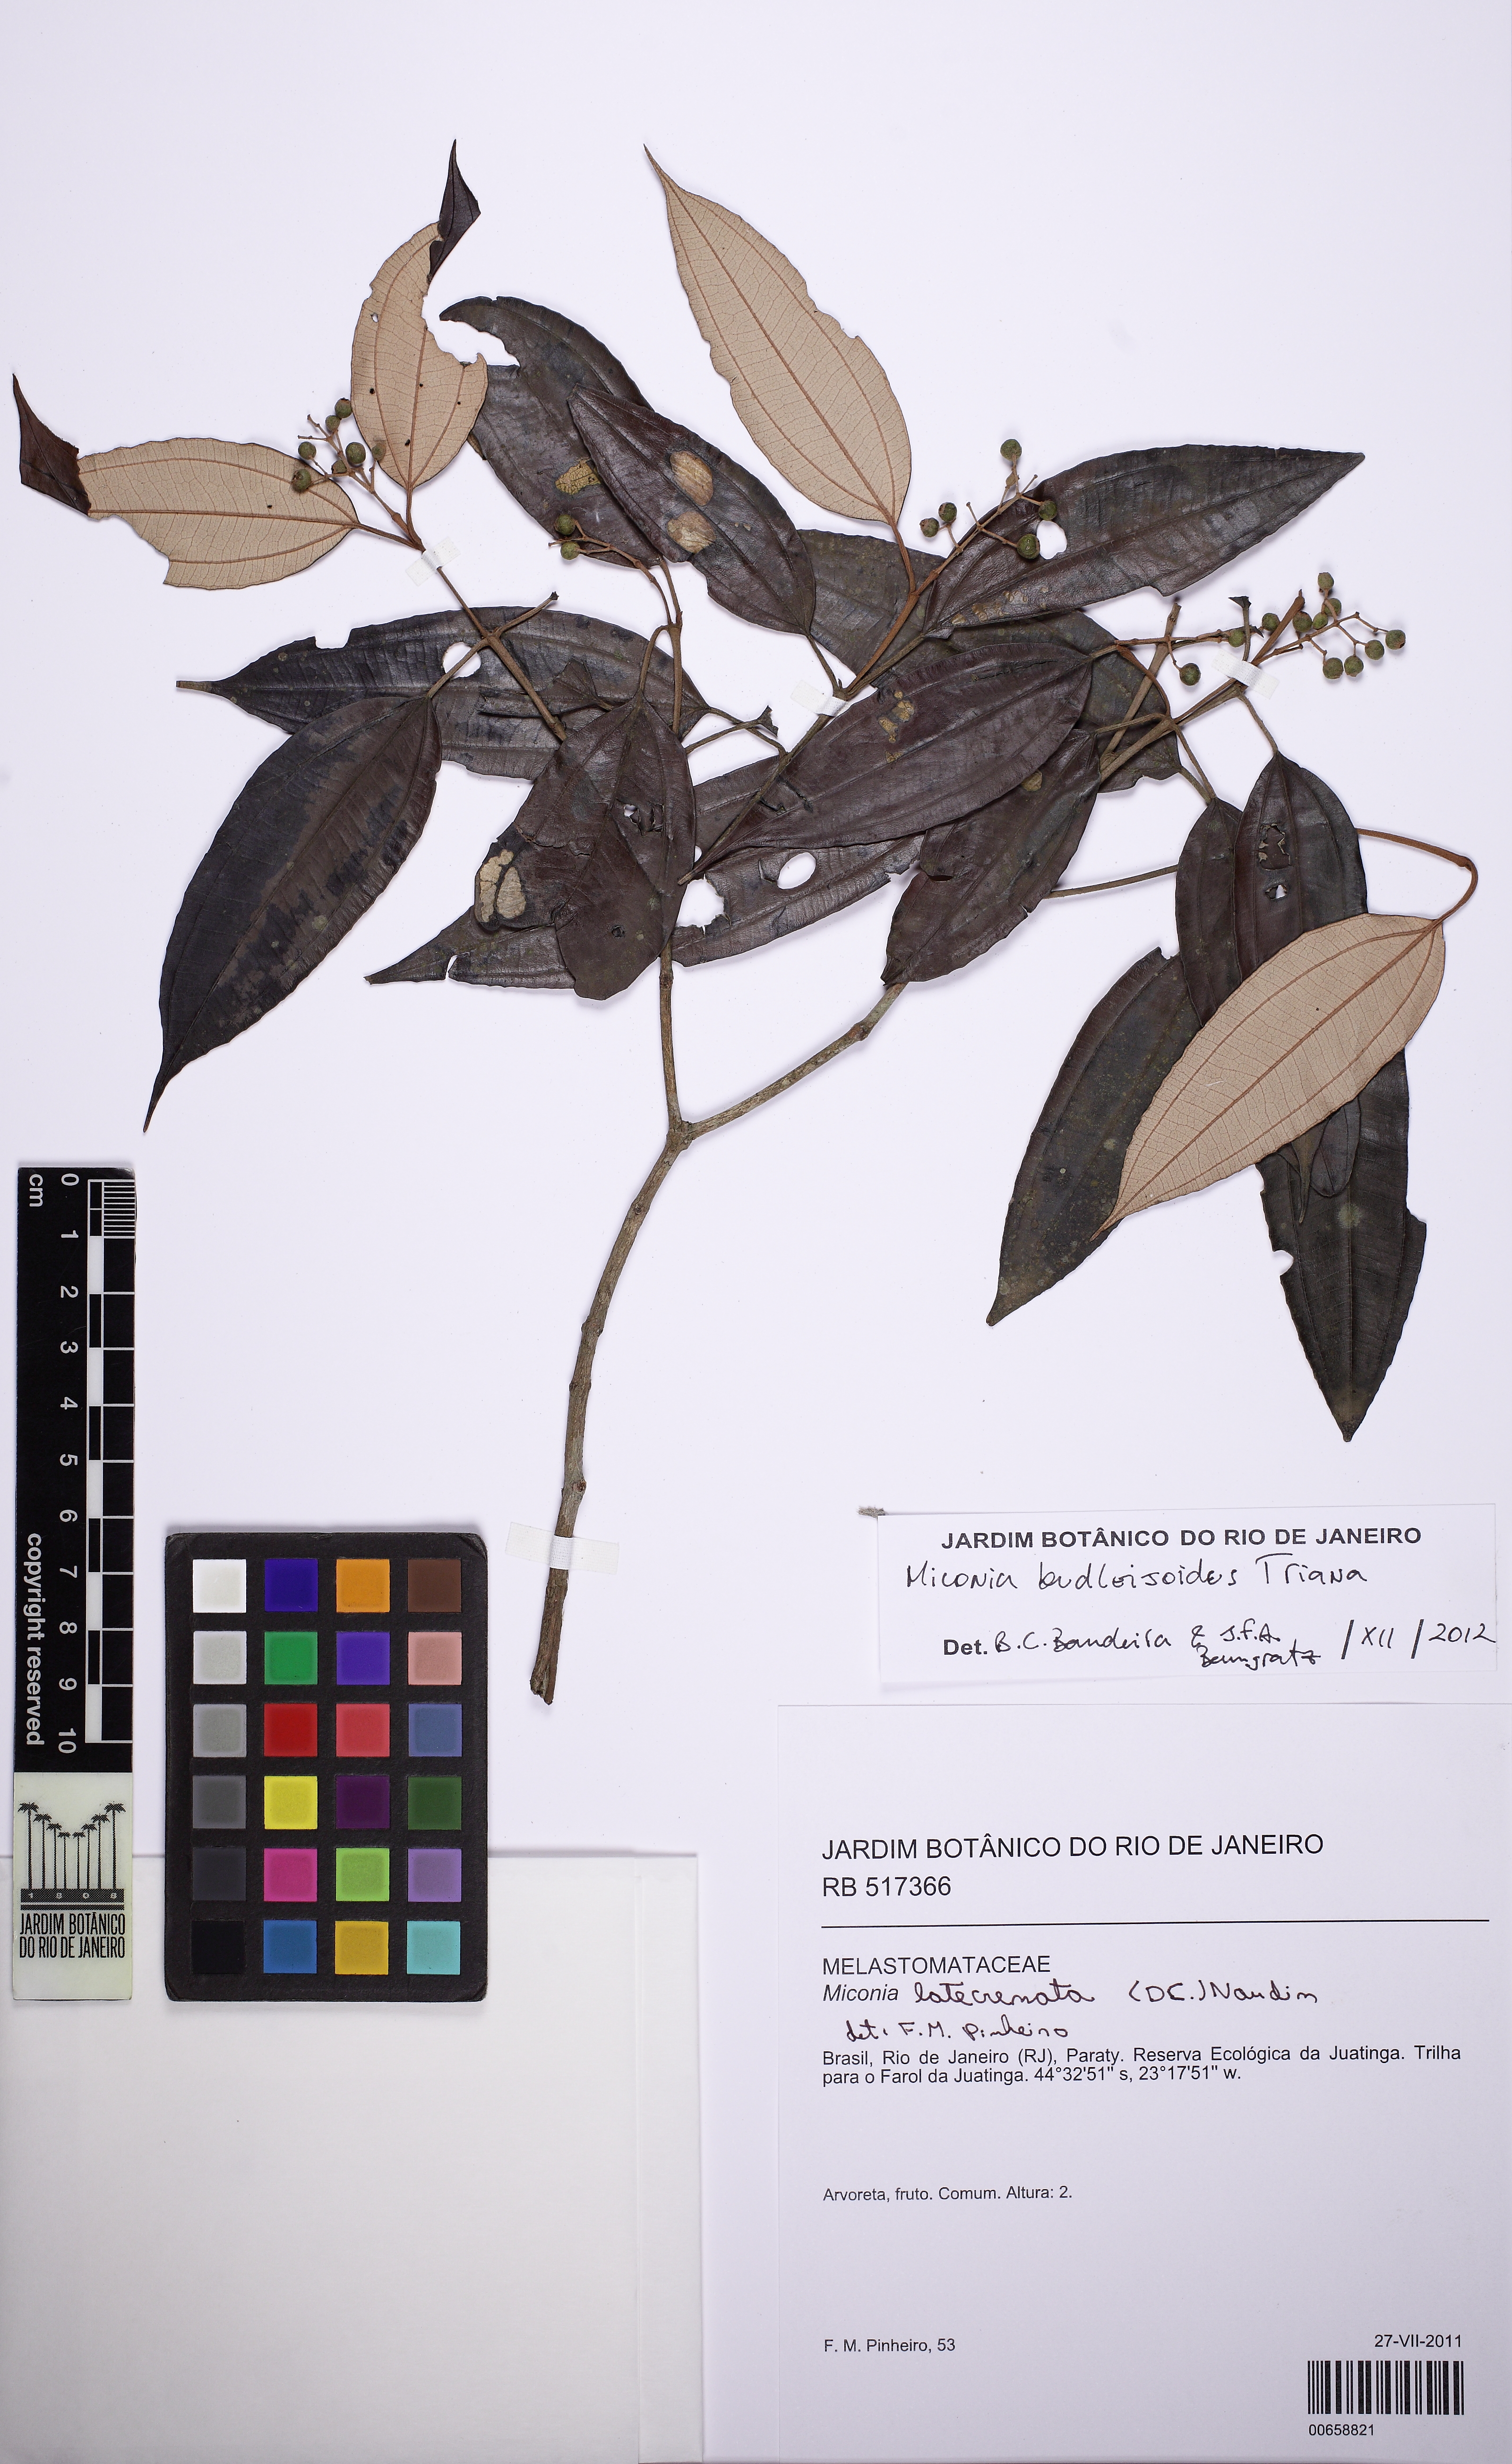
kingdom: Plantae
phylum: Tracheophyta
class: Magnoliopsida
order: Myrtales
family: Melastomataceae
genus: Miconia
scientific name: Miconia buddlejoides
